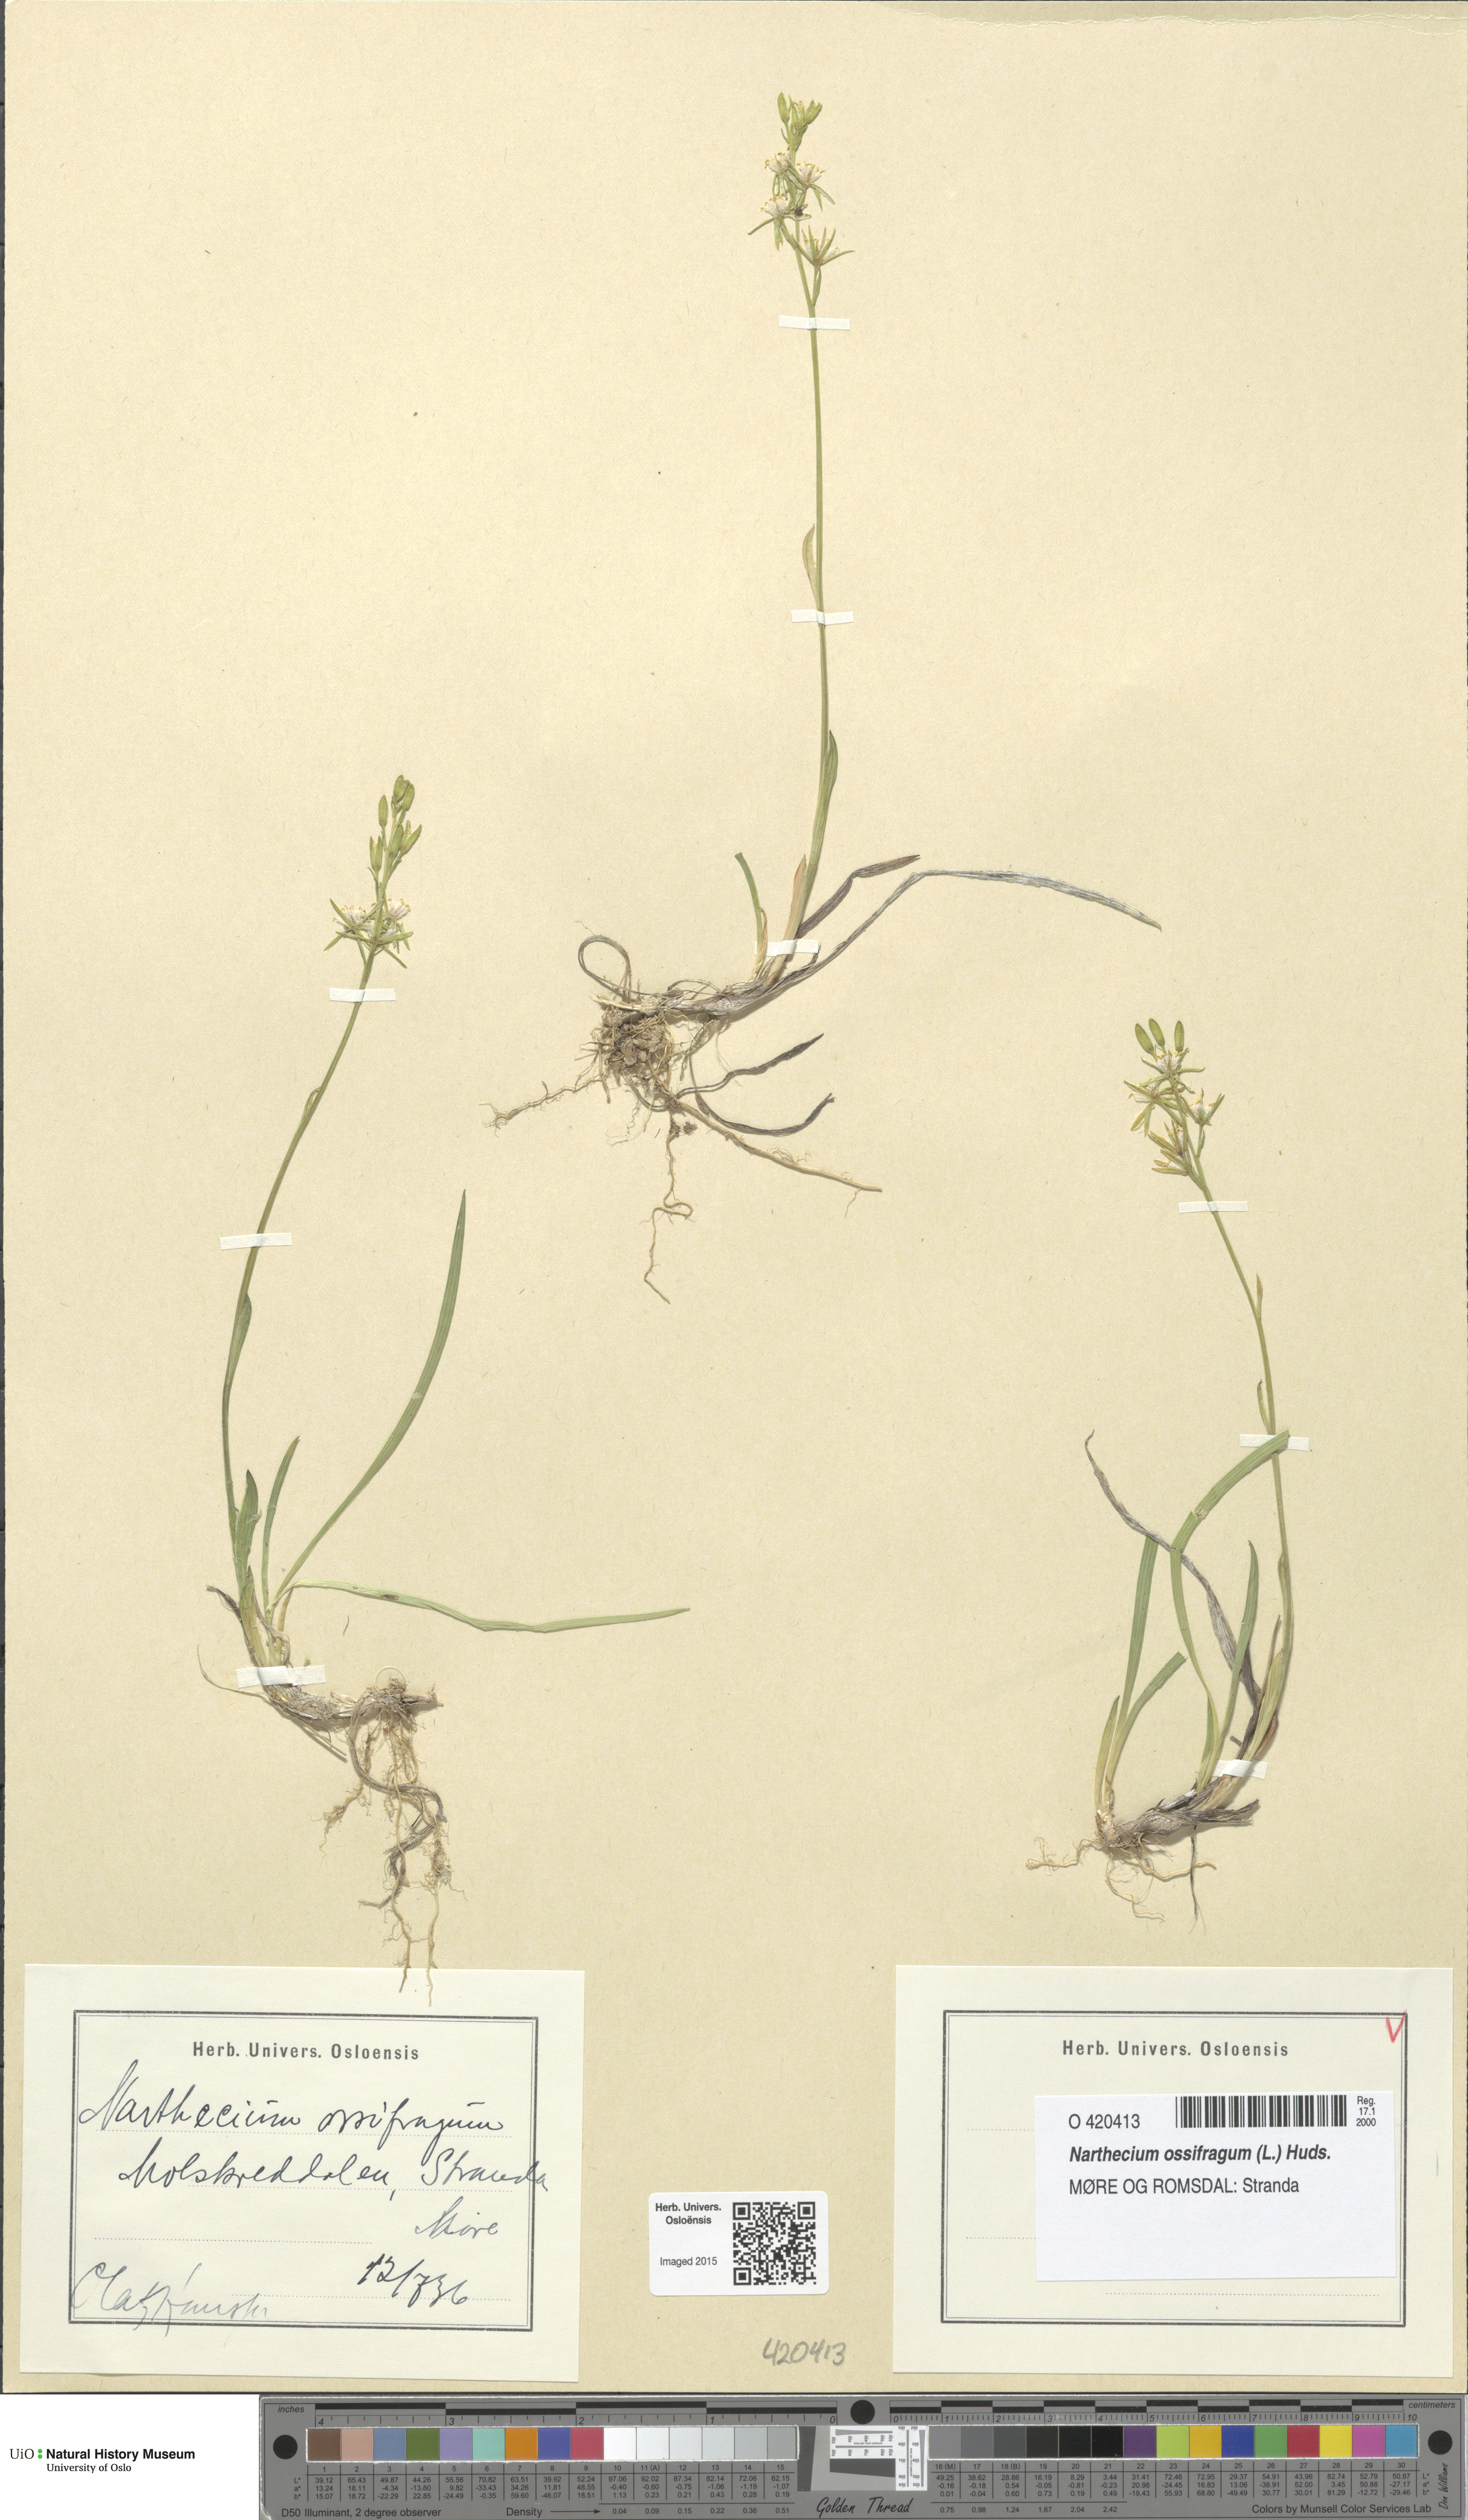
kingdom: Plantae
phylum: Tracheophyta
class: Liliopsida
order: Dioscoreales
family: Nartheciaceae
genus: Narthecium
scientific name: Narthecium ossifragum
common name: Bog asphodel
